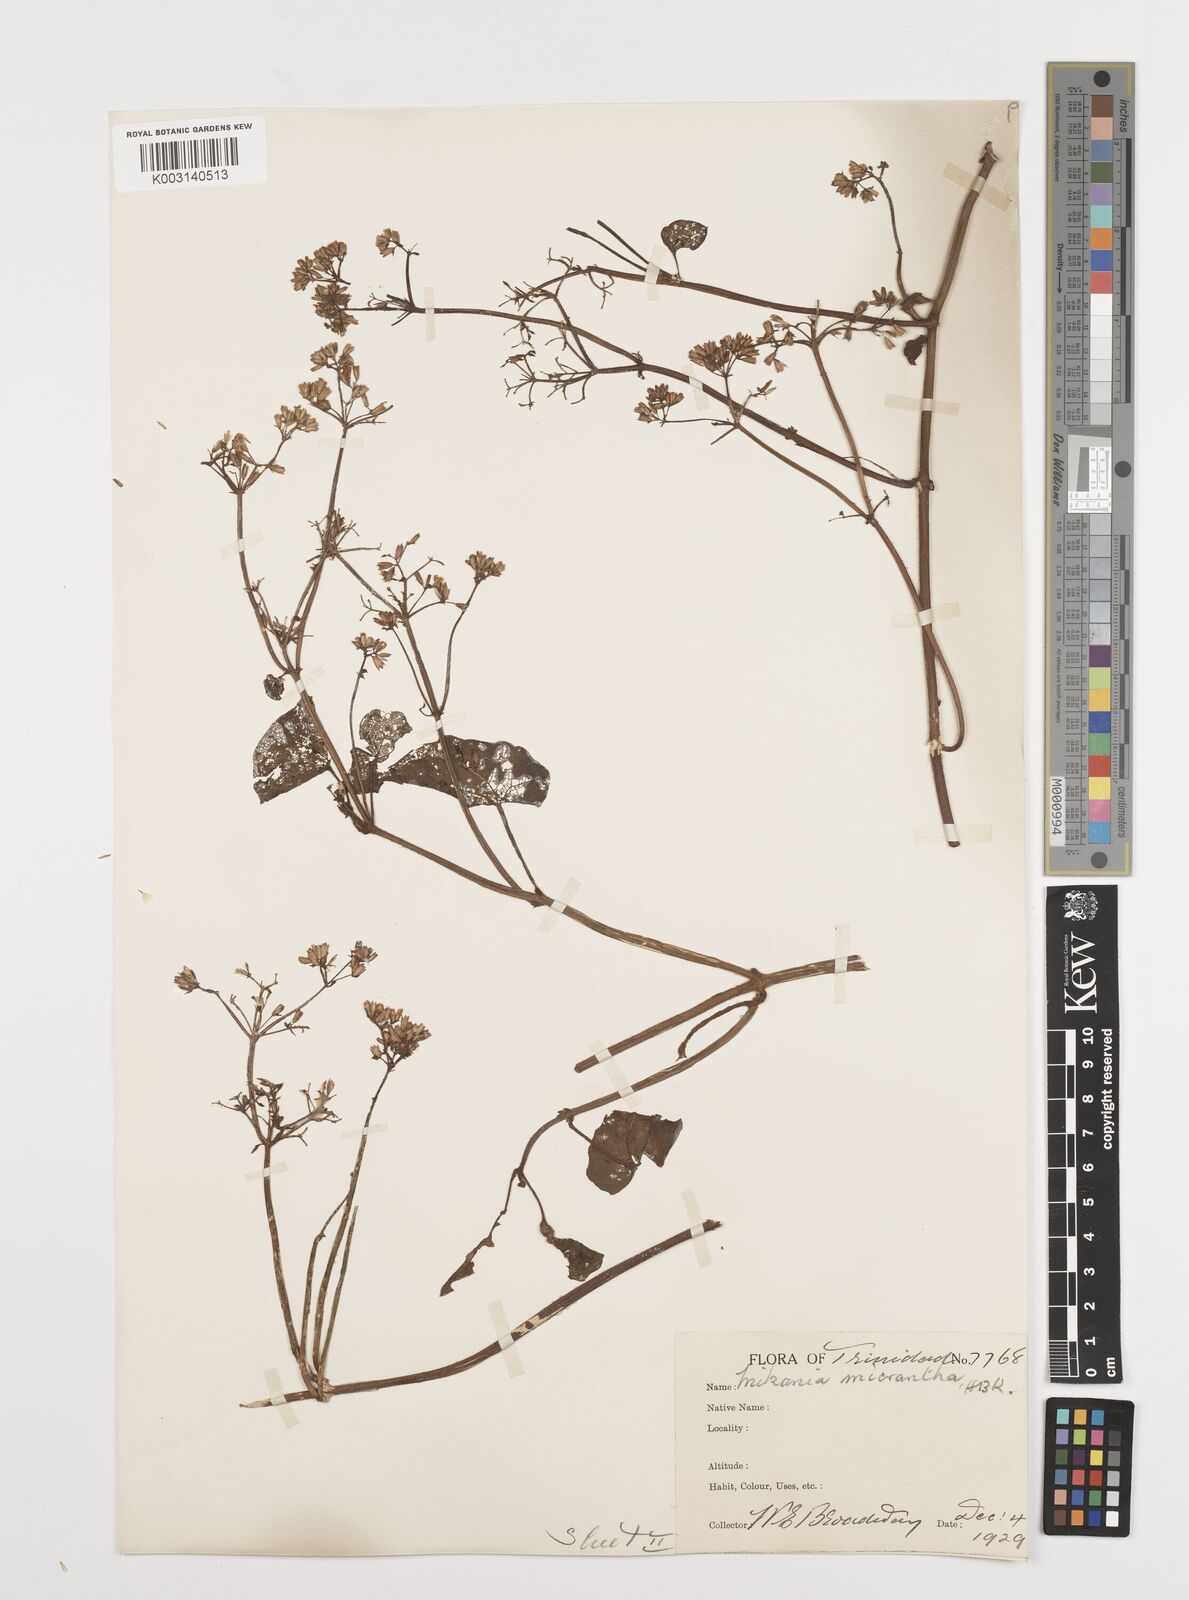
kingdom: Plantae
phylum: Tracheophyta
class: Magnoliopsida
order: Asterales
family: Asteraceae
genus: Mikania
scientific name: Mikania micrantha
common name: Mile-a-minute
